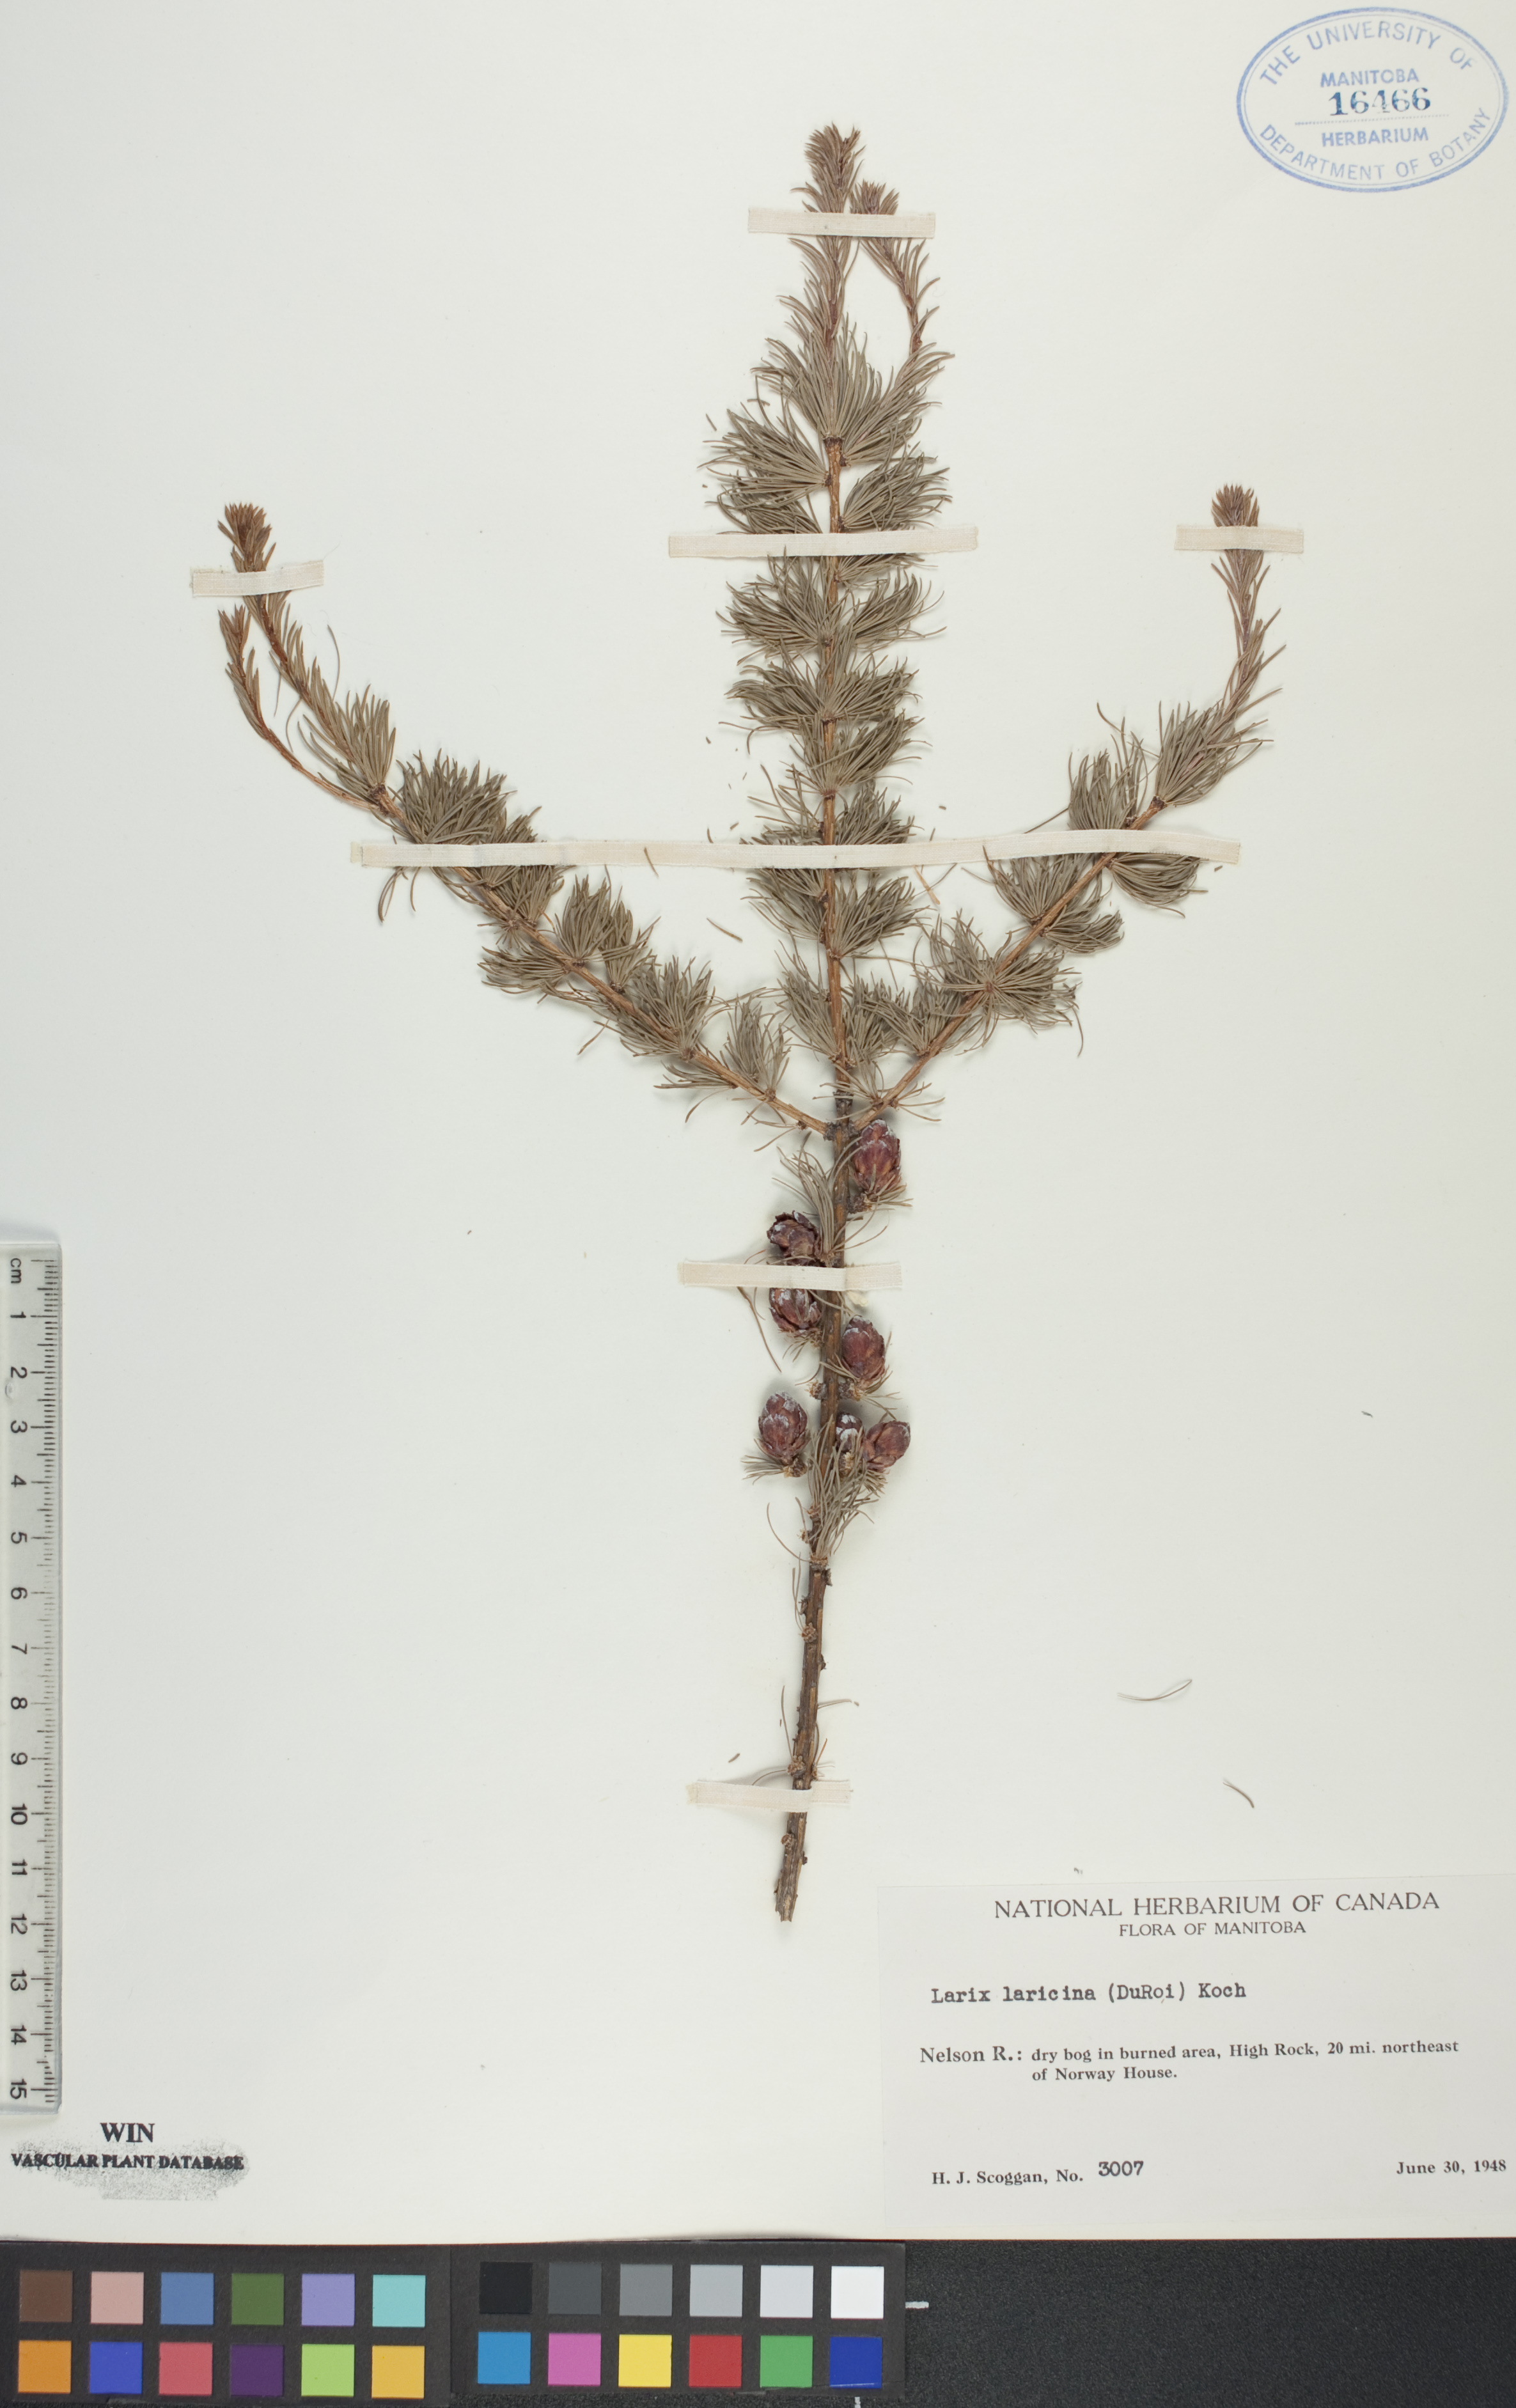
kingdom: Plantae
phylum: Tracheophyta
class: Pinopsida
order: Pinales
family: Pinaceae
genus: Larix
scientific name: Larix laricina
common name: American larch
